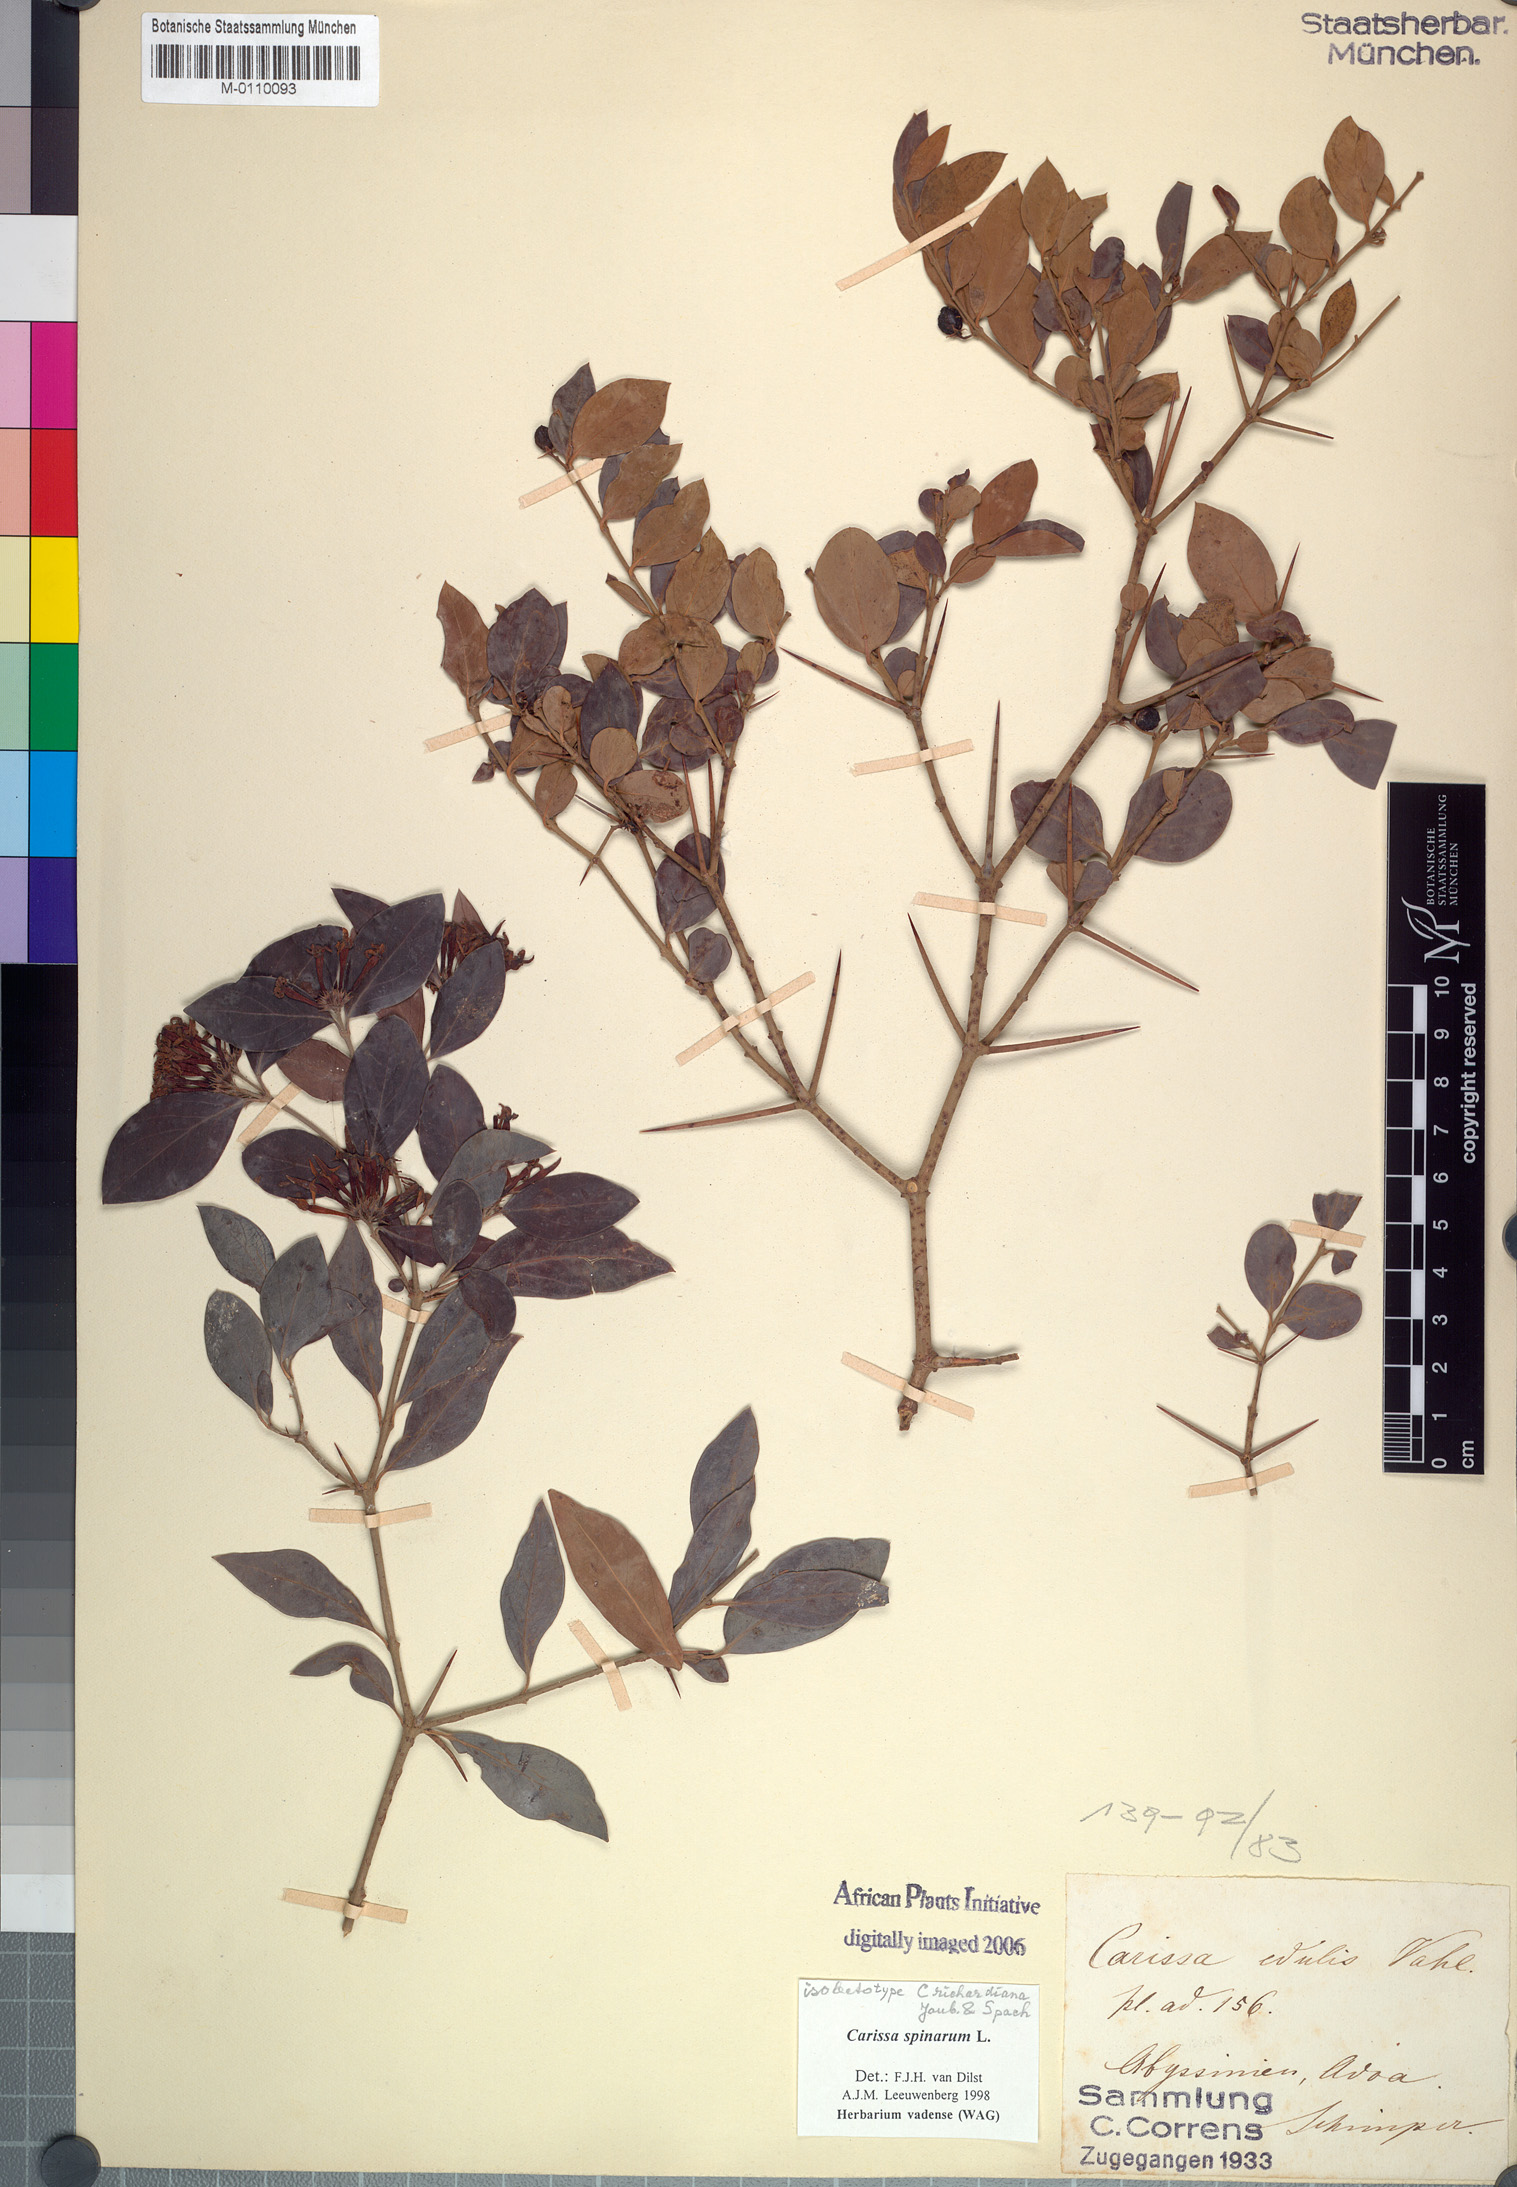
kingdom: Plantae
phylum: Tracheophyta
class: Magnoliopsida
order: Gentianales
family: Apocynaceae
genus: Carissa
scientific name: Carissa spinarum
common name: Egyptian carissa
